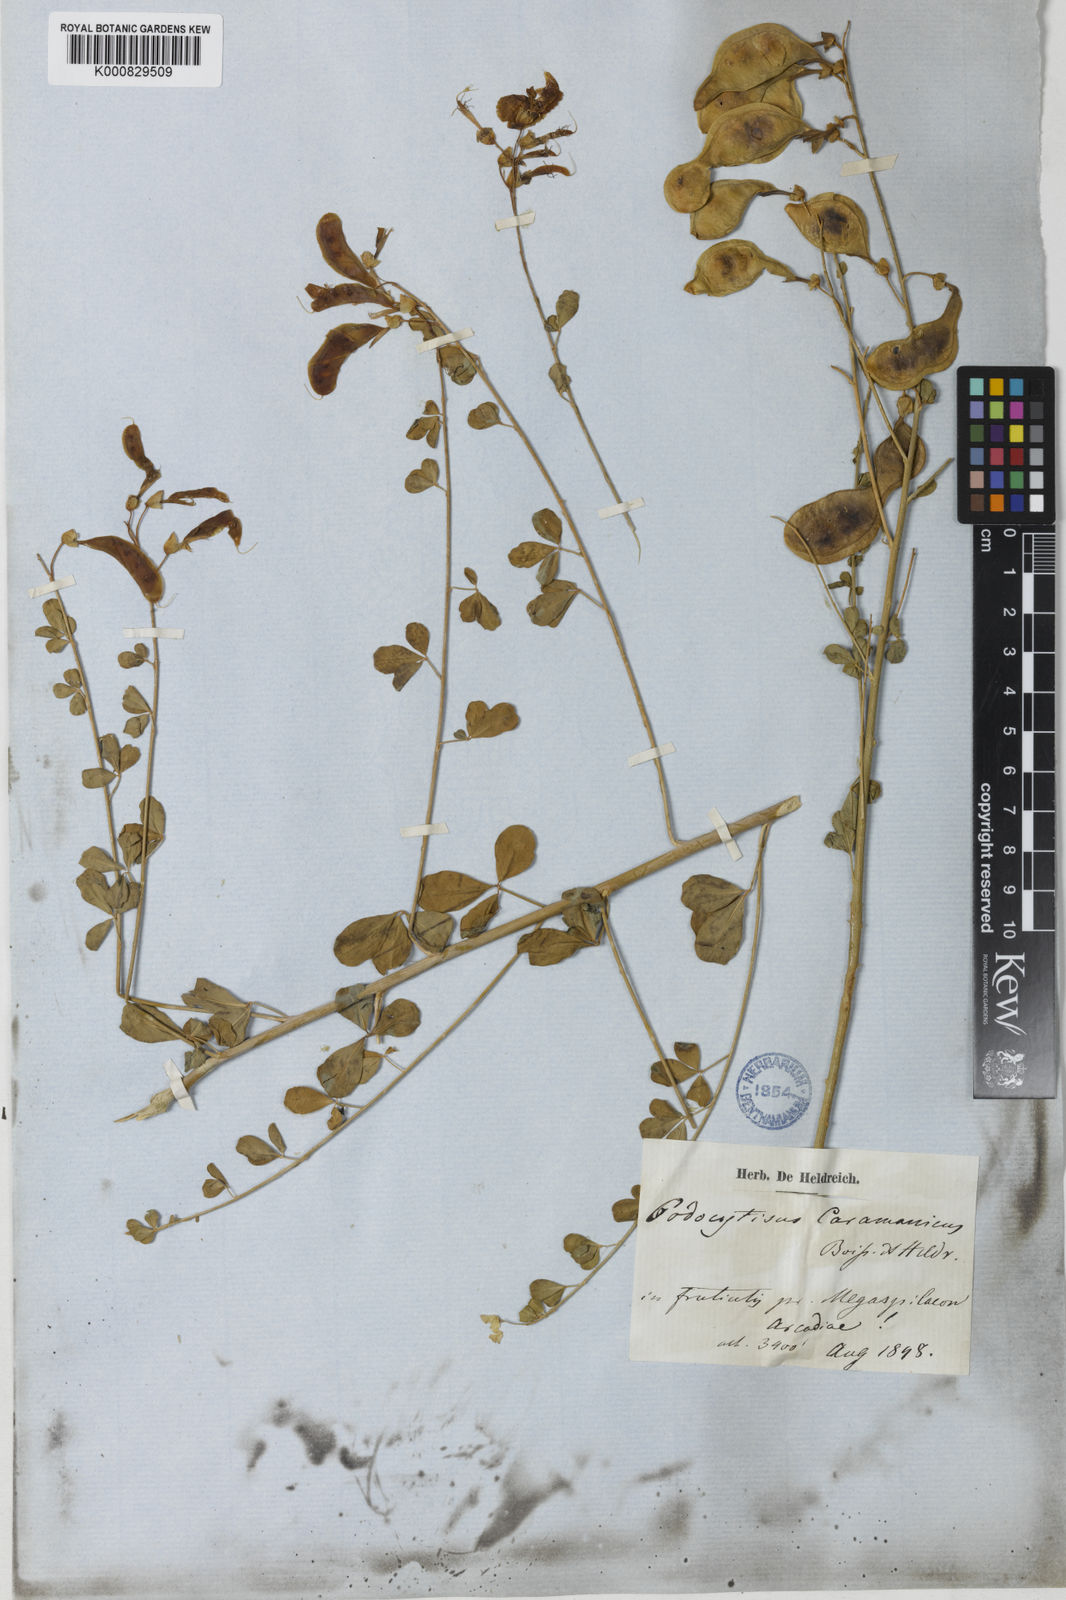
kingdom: Plantae
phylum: Tracheophyta
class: Magnoliopsida
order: Fabales
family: Fabaceae
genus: Podocytisus
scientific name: Podocytisus caramanicus
